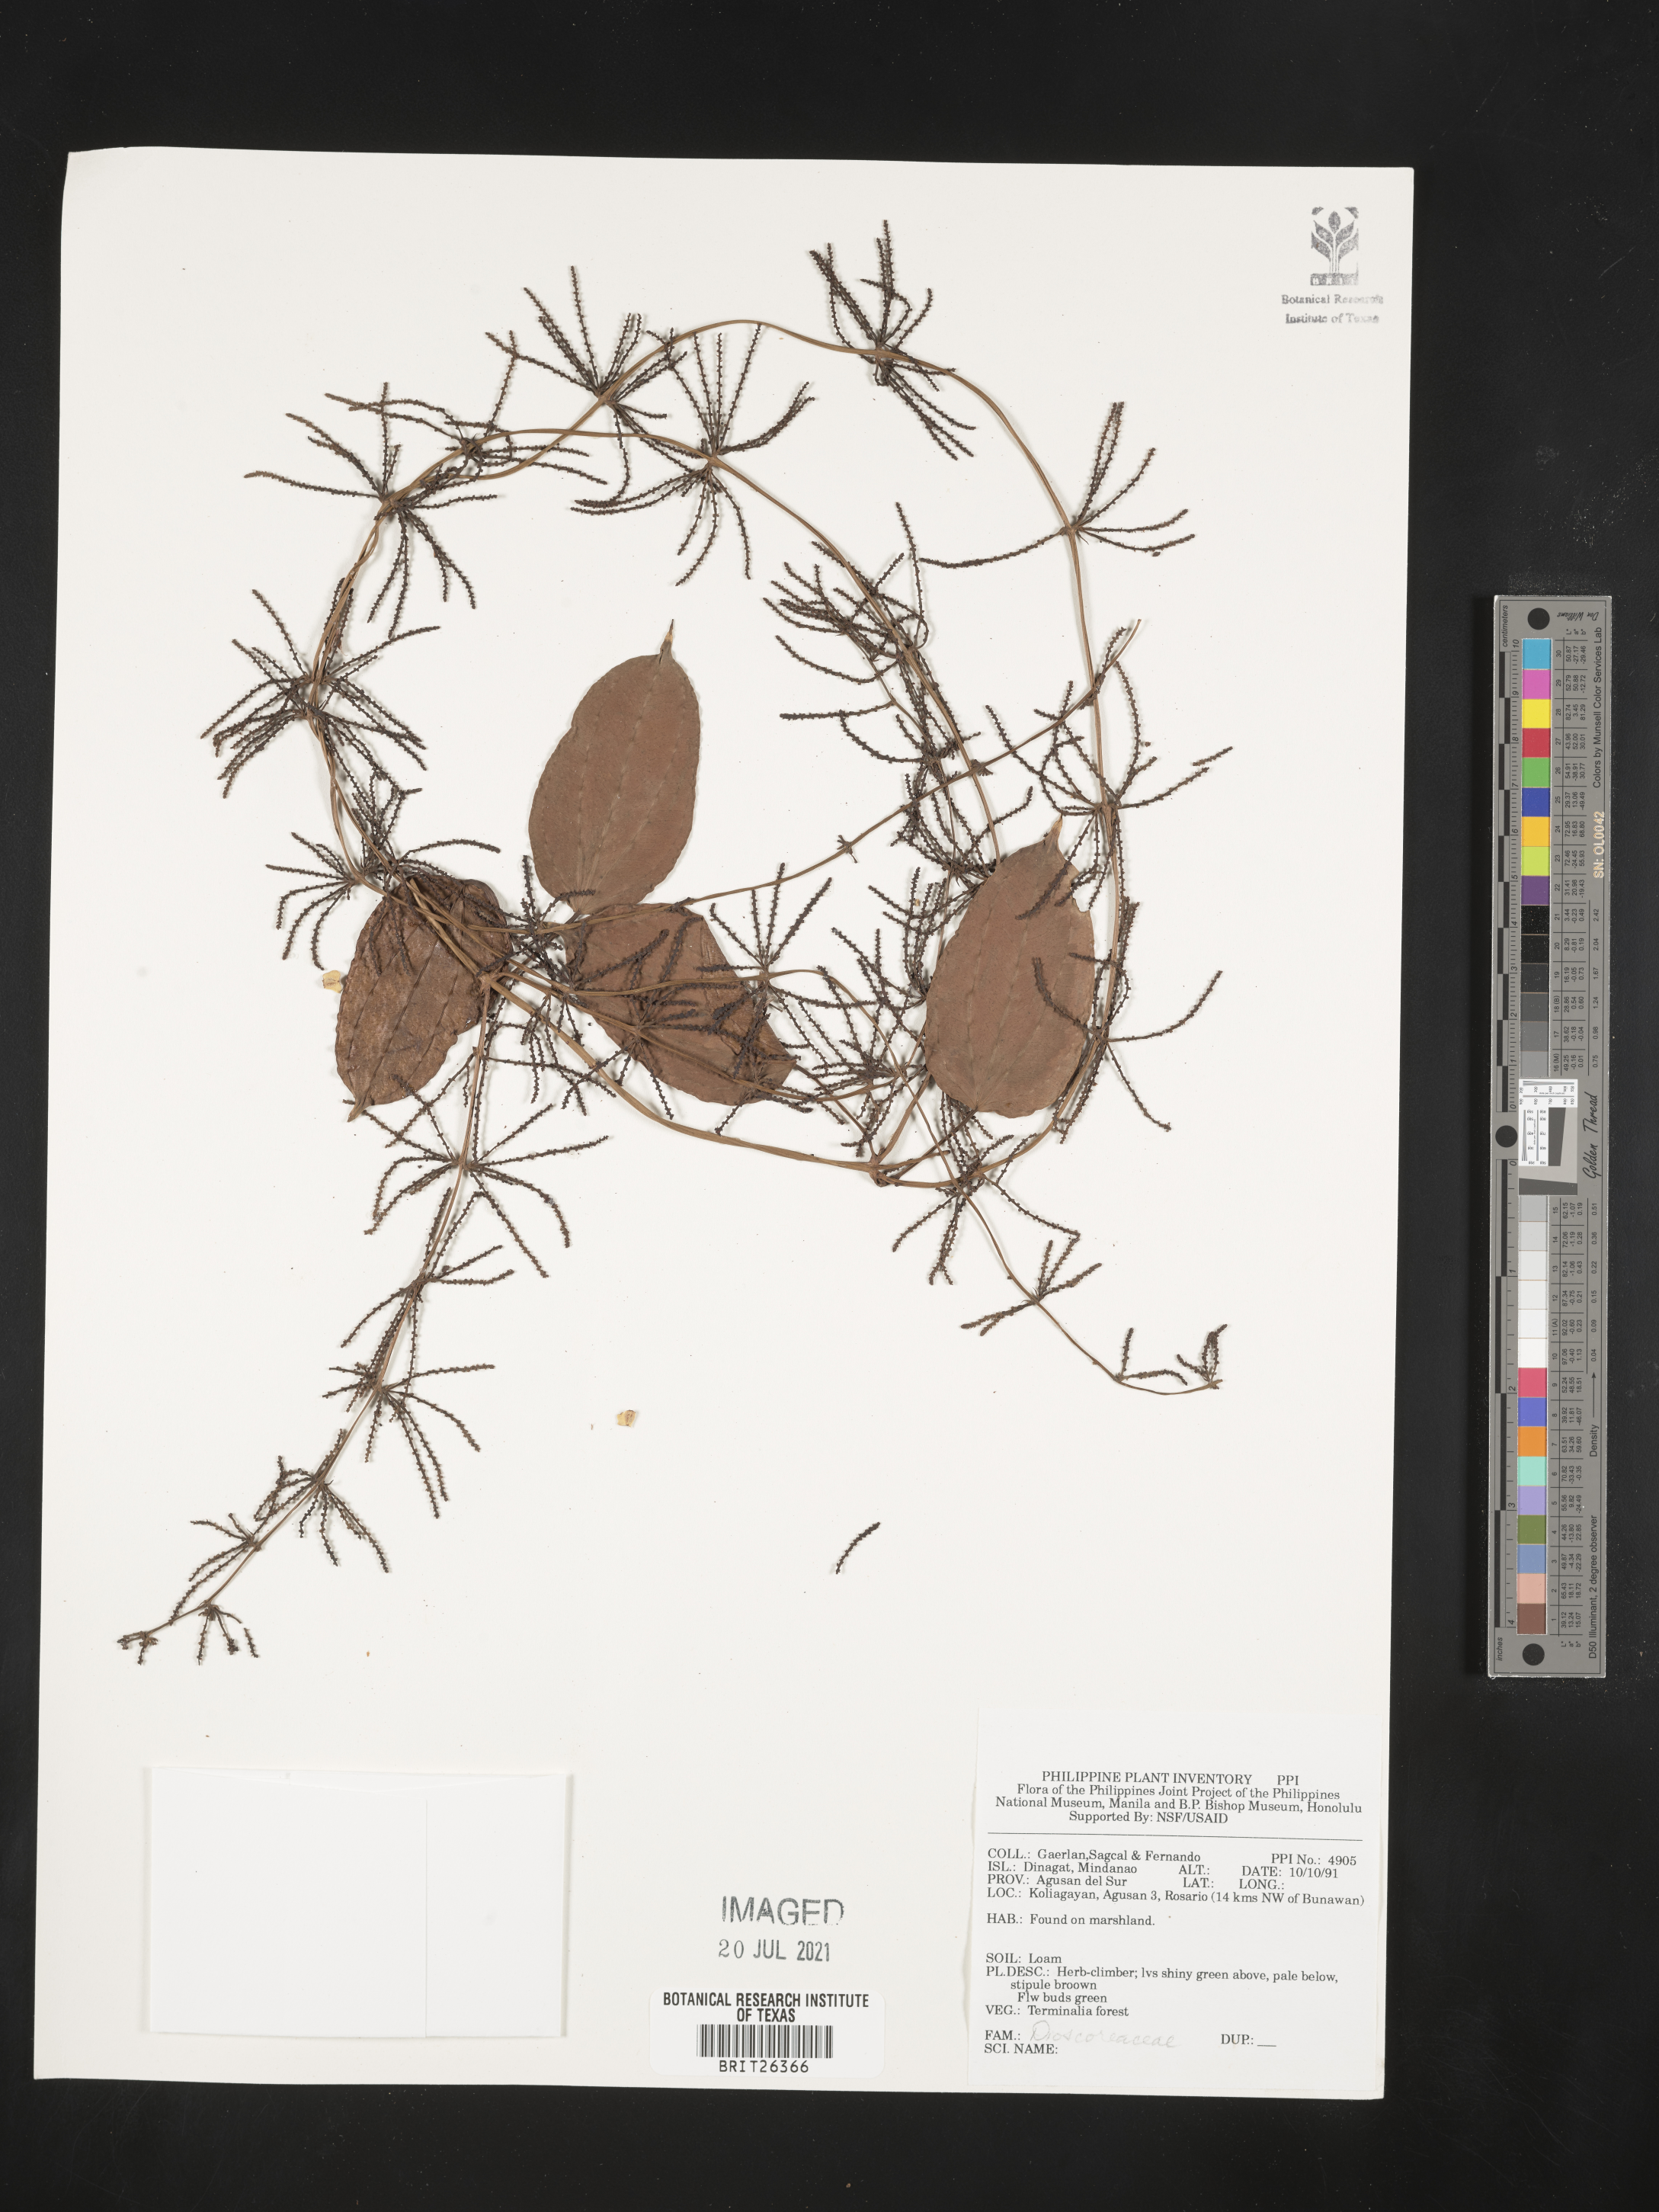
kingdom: Plantae
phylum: Tracheophyta
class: Liliopsida
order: Dioscoreales
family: Dioscoreaceae
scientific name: Dioscoreaceae
